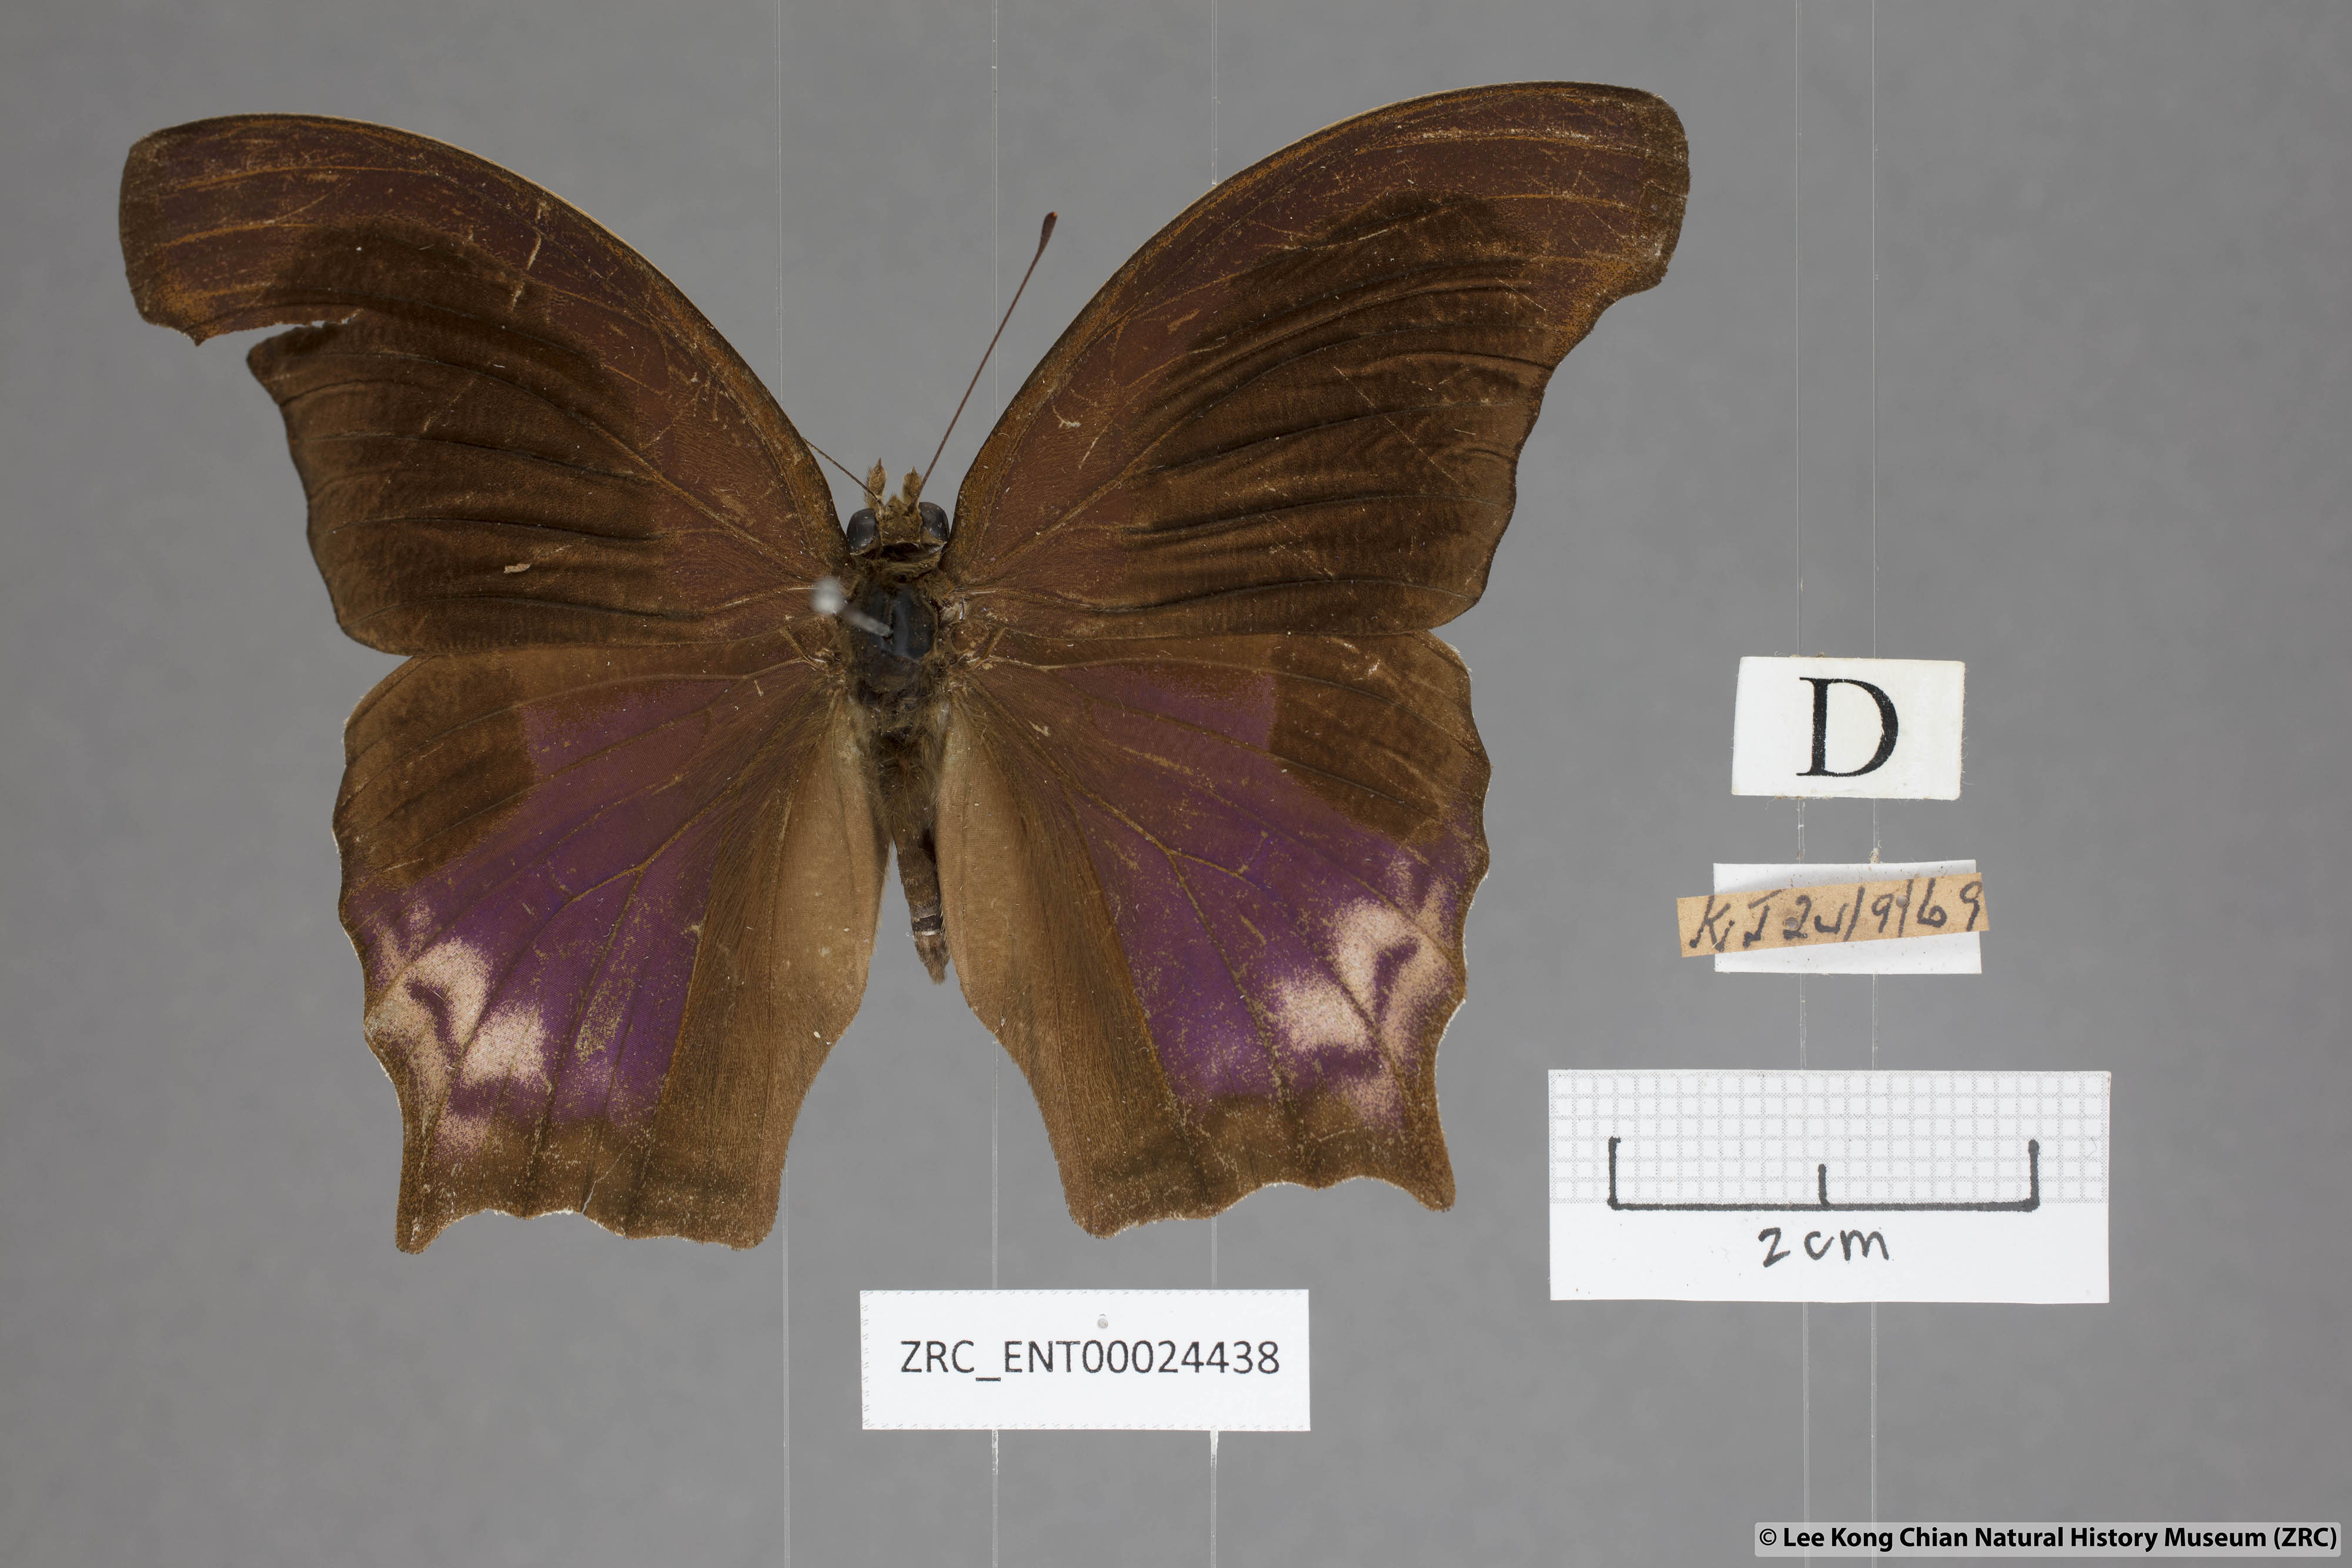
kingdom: Animalia
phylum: Arthropoda
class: Insecta
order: Lepidoptera
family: Nymphalidae
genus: Terinos
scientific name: Terinos terpander
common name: Royal assyrian
